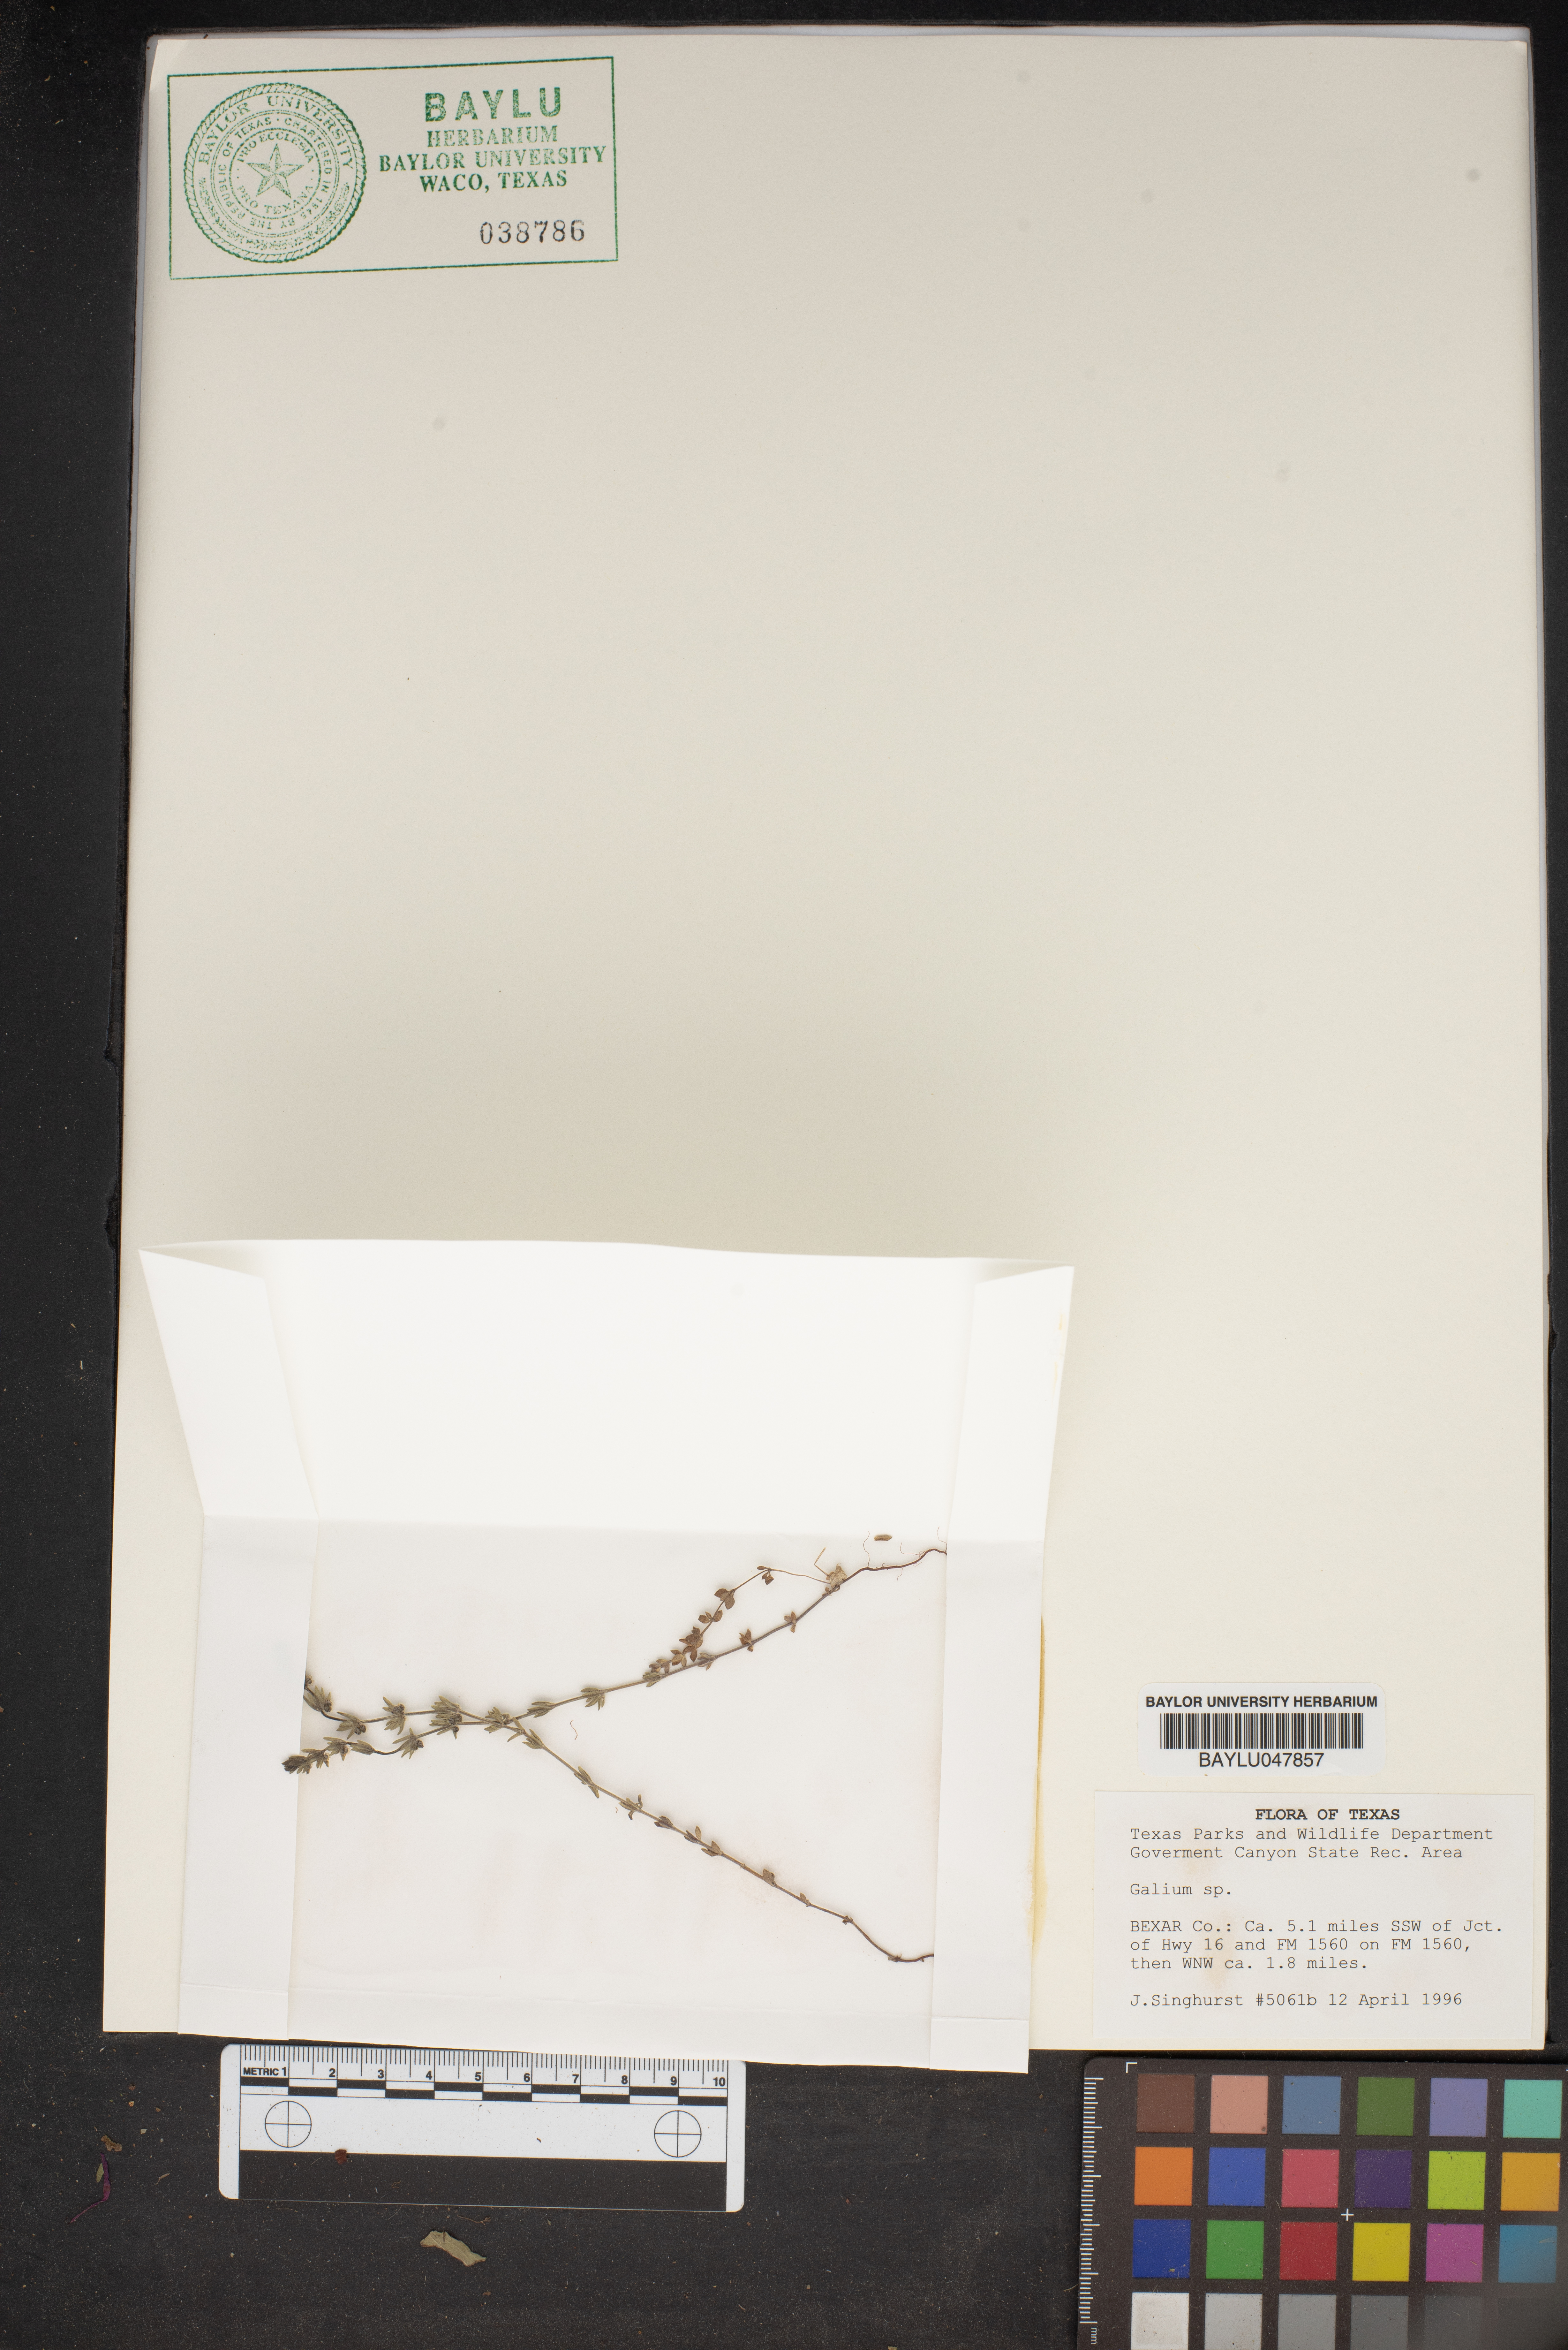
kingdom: Plantae
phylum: Tracheophyta
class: Magnoliopsida
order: Gentianales
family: Rubiaceae
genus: Galium
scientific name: Galium
